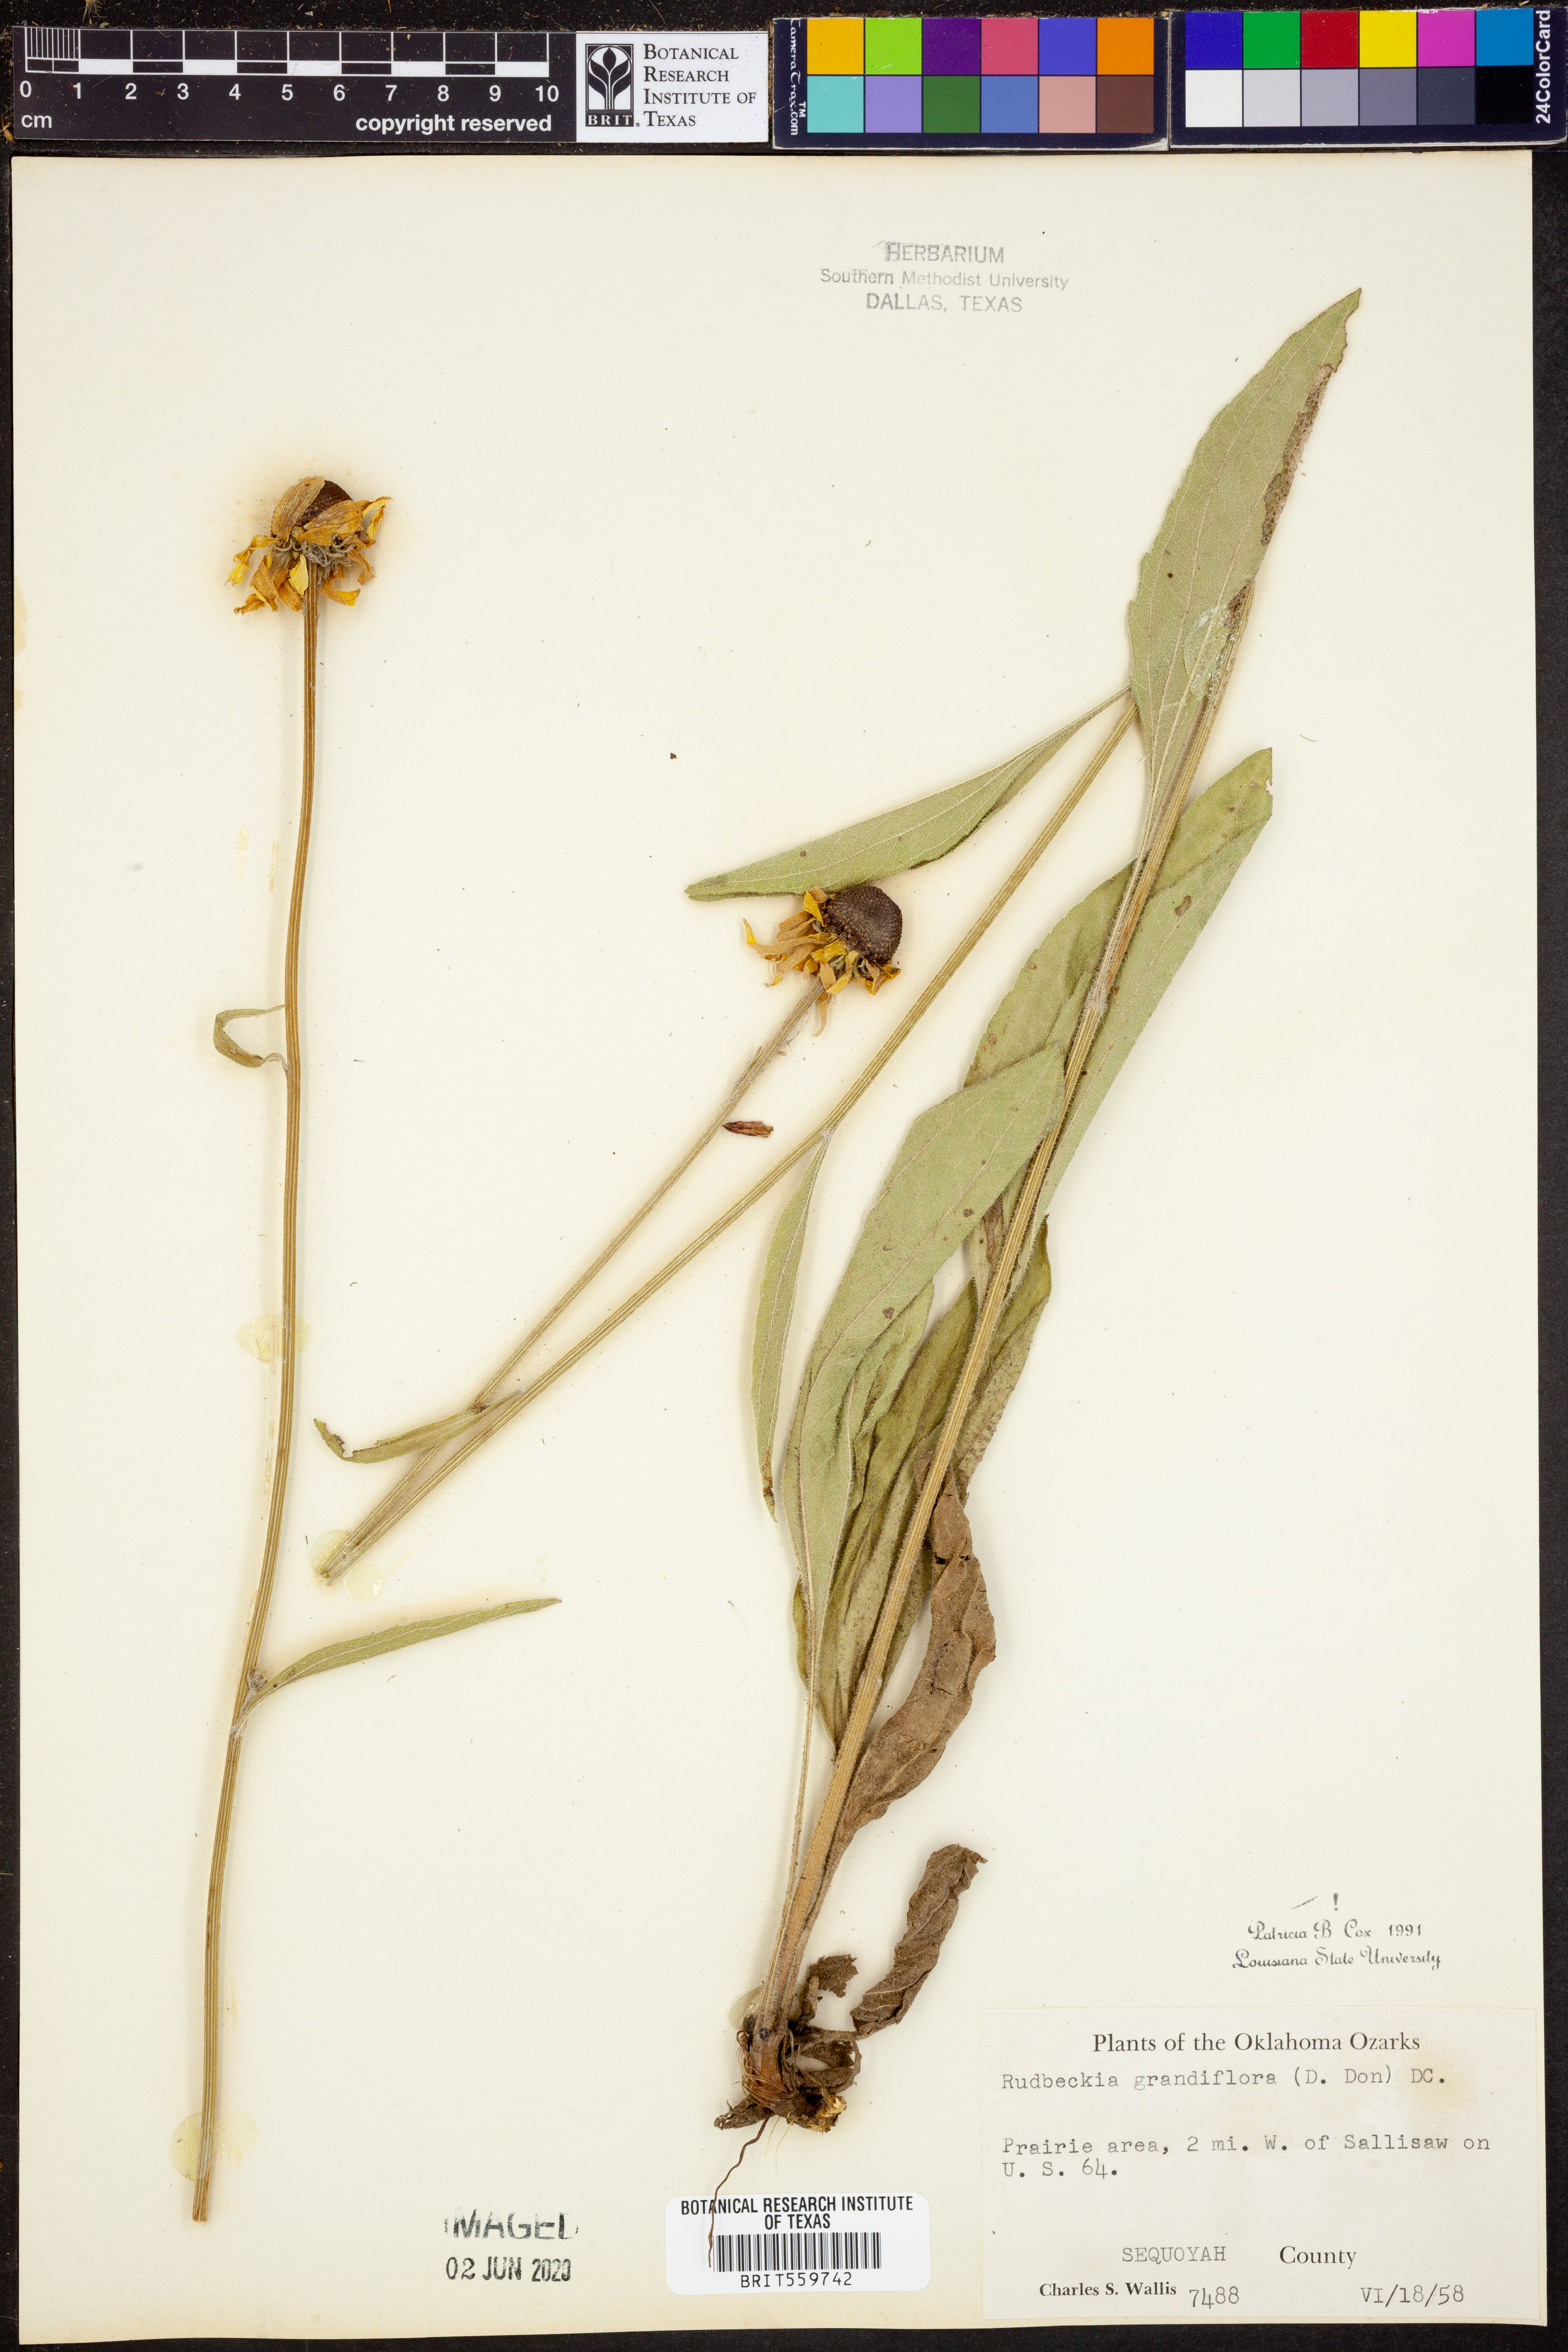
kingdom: Plantae
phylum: Tracheophyta
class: Magnoliopsida
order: Asterales
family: Asteraceae
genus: Rudbeckia
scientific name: Rudbeckia grandiflora
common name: Large-flowered coneflower
